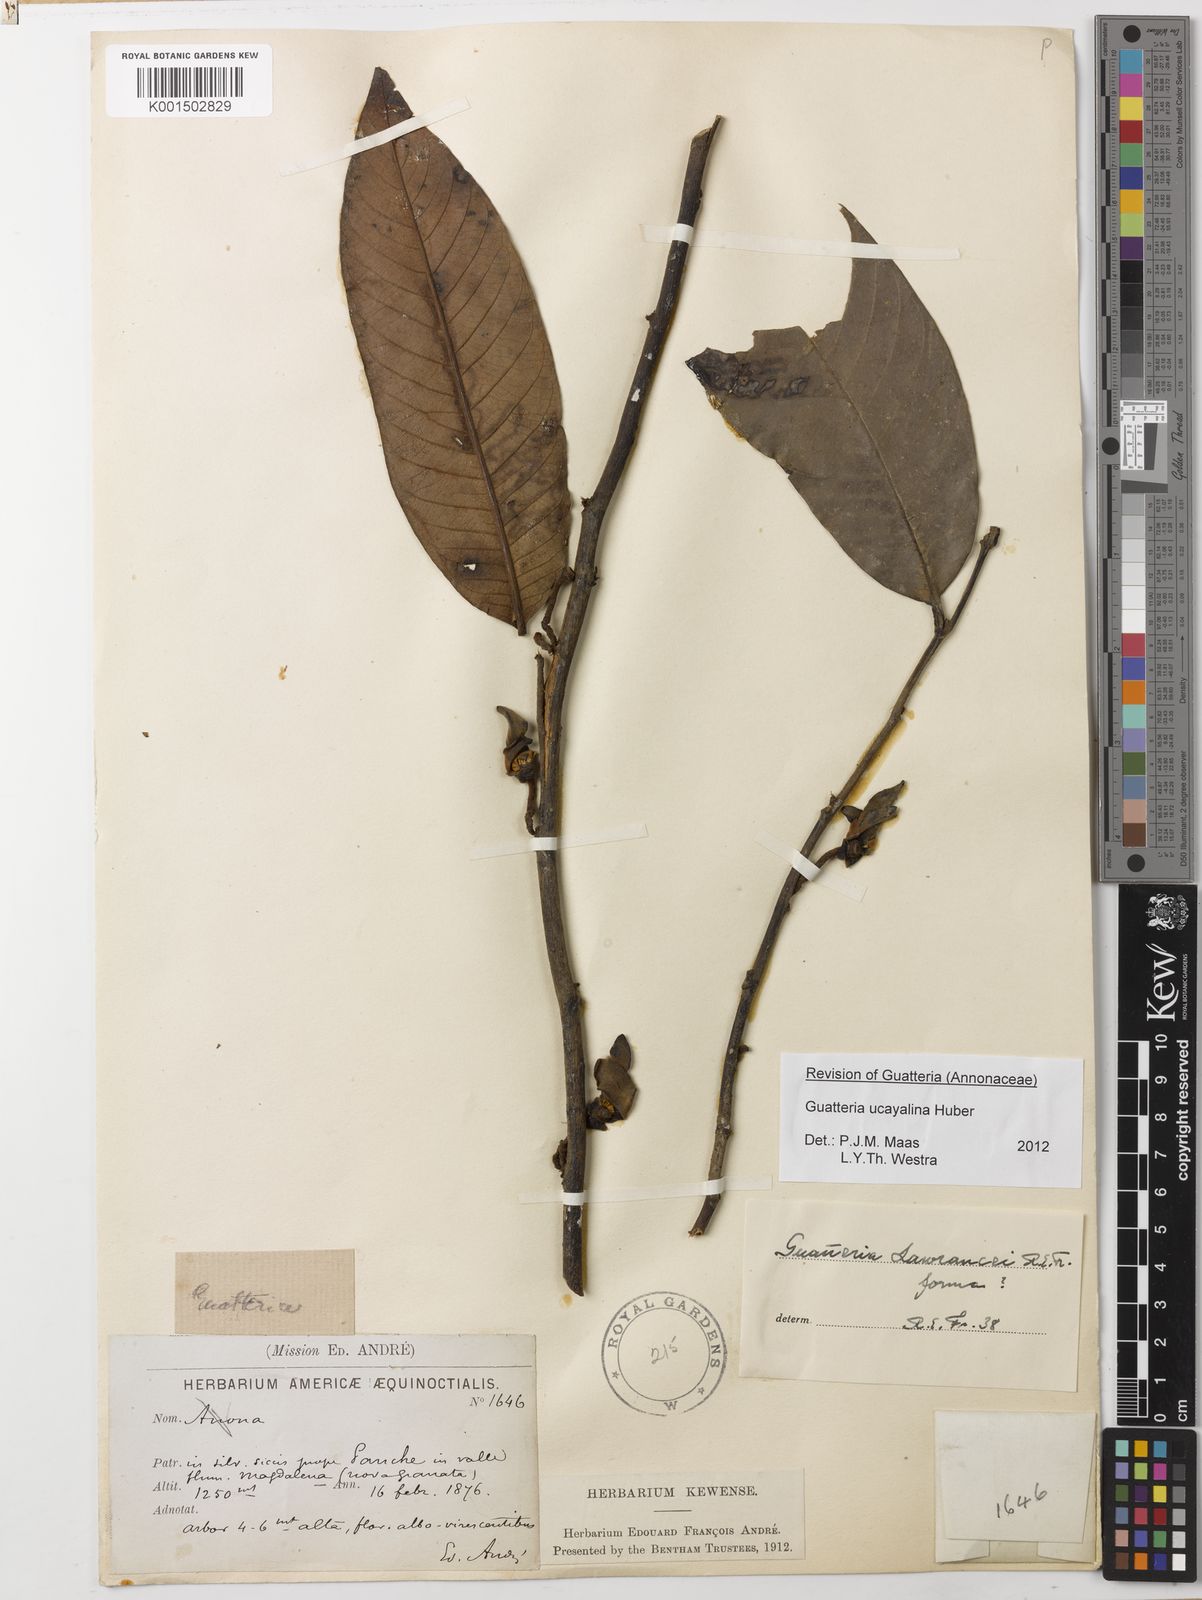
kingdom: Plantae
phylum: Tracheophyta
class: Magnoliopsida
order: Magnoliales
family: Annonaceae
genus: Guatteria
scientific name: Guatteria blepharophylla
